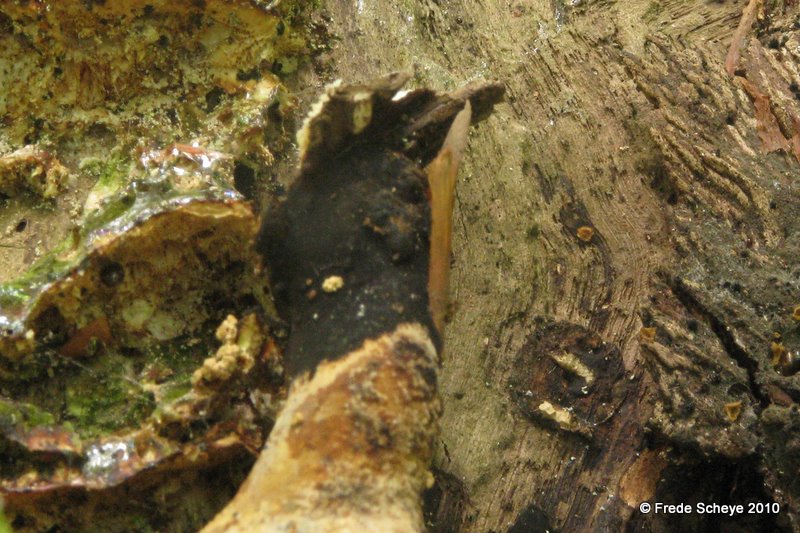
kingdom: Fungi
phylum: Basidiomycota
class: Agaricomycetes
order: Polyporales
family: Polyporaceae
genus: Cerioporus
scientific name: Cerioporus varius
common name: foranderlig stilkporesvamp
